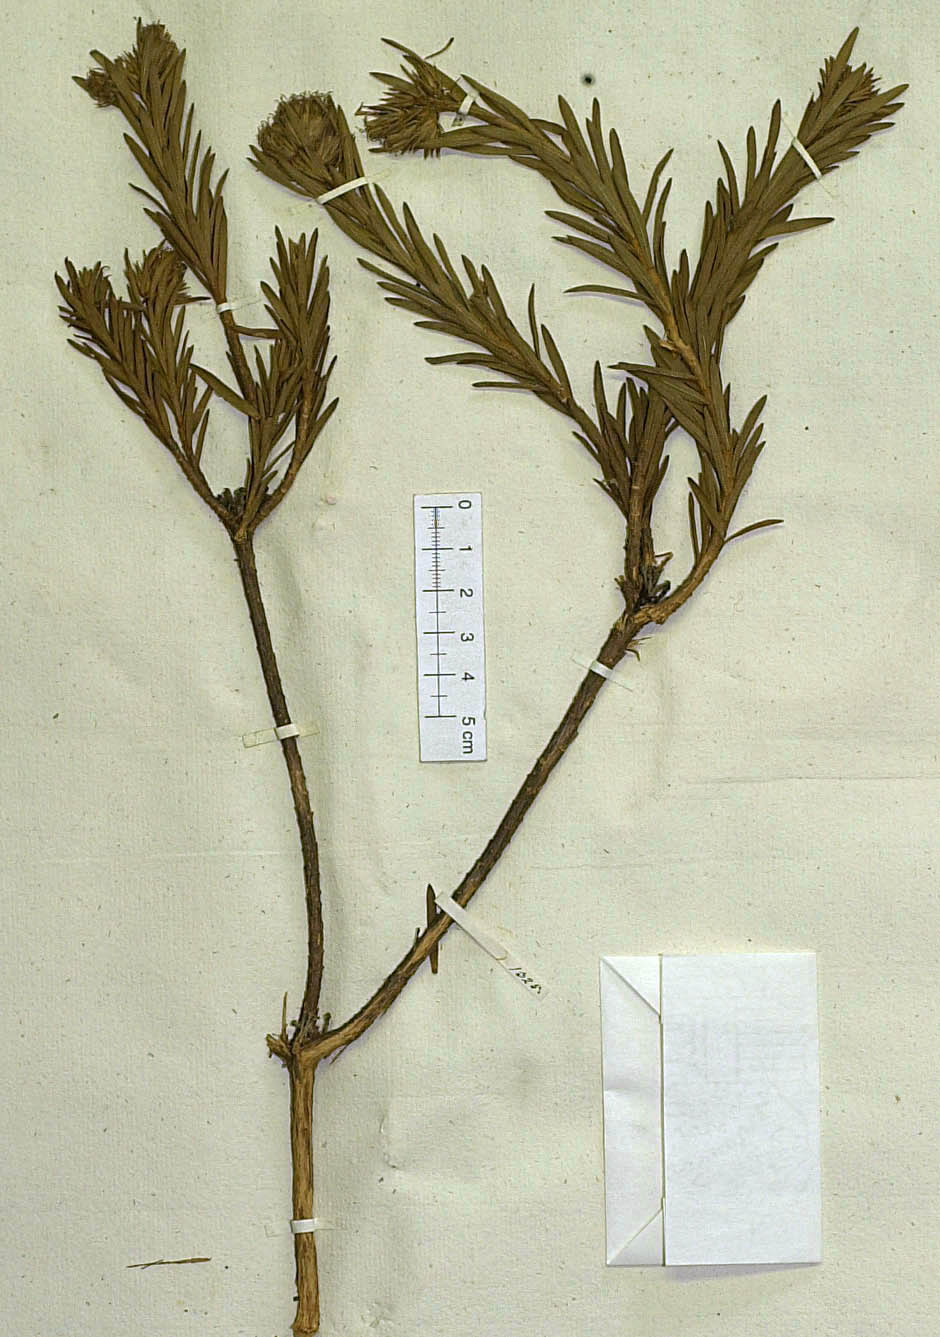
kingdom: Plantae
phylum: Tracheophyta
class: Magnoliopsida
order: Asterales
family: Asteraceae
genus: Agrianthus
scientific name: Agrianthus campestris
